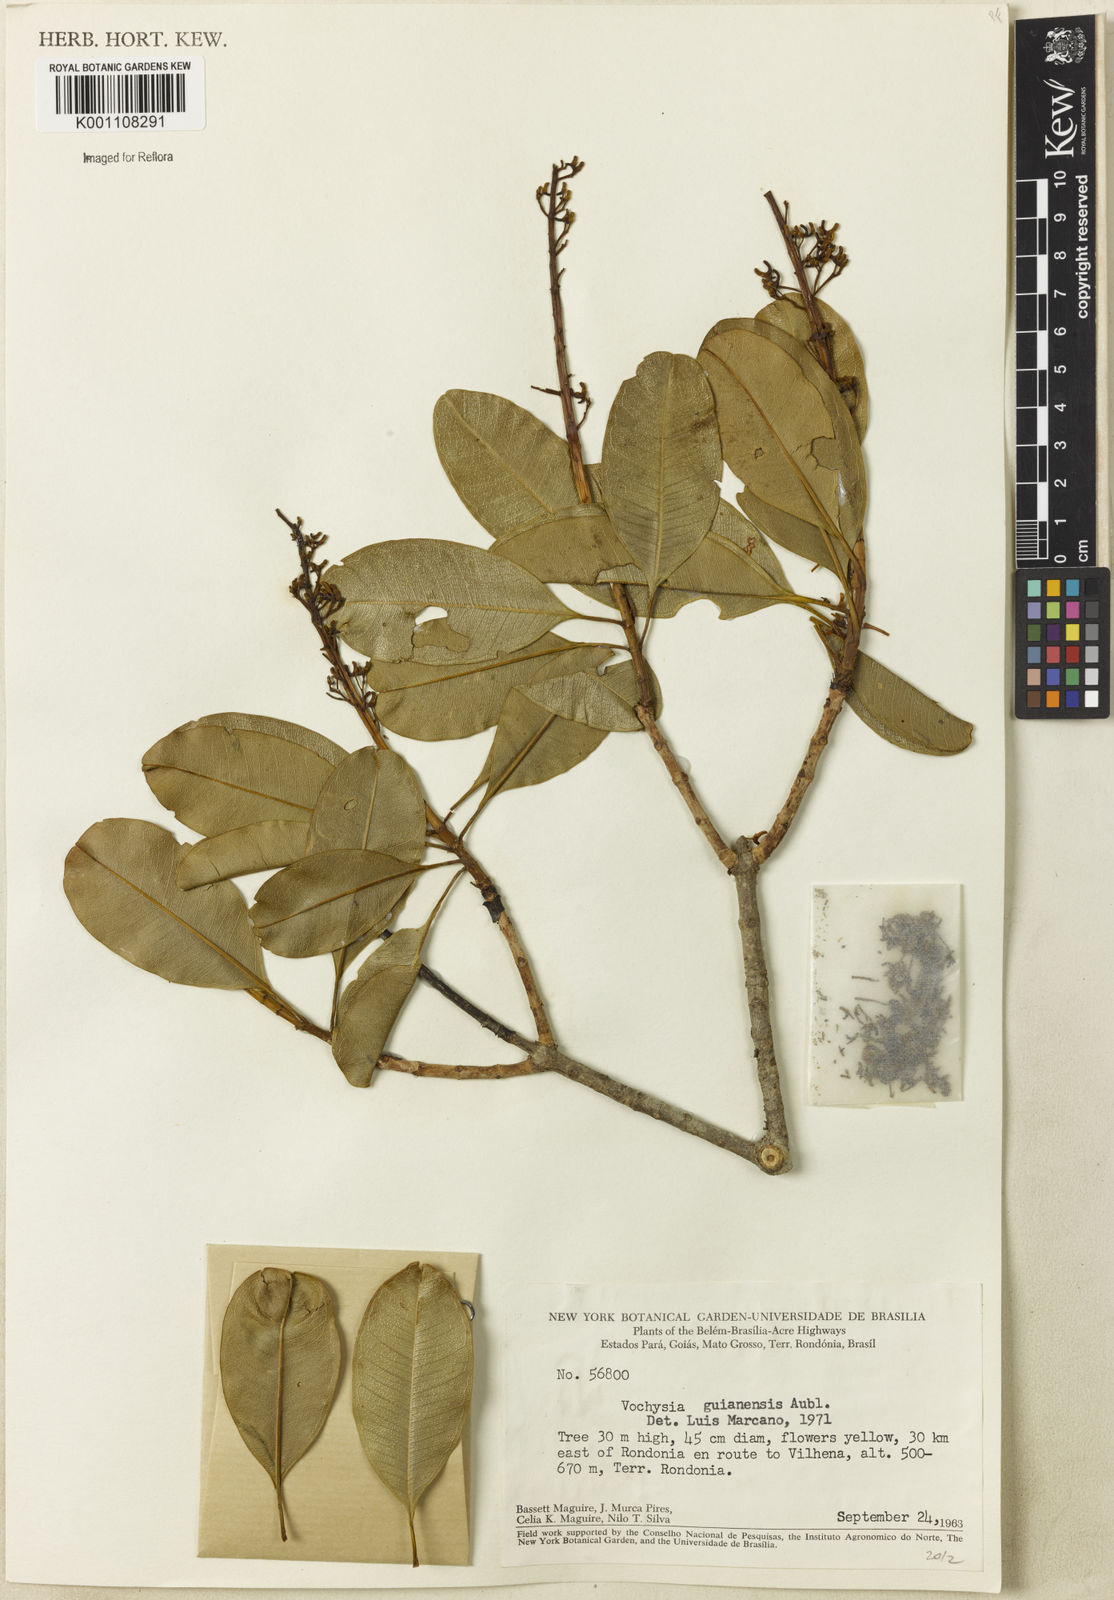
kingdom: Plantae
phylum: Tracheophyta
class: Magnoliopsida
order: Myrtales
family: Vochysiaceae
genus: Vochysia
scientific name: Vochysia grandis
